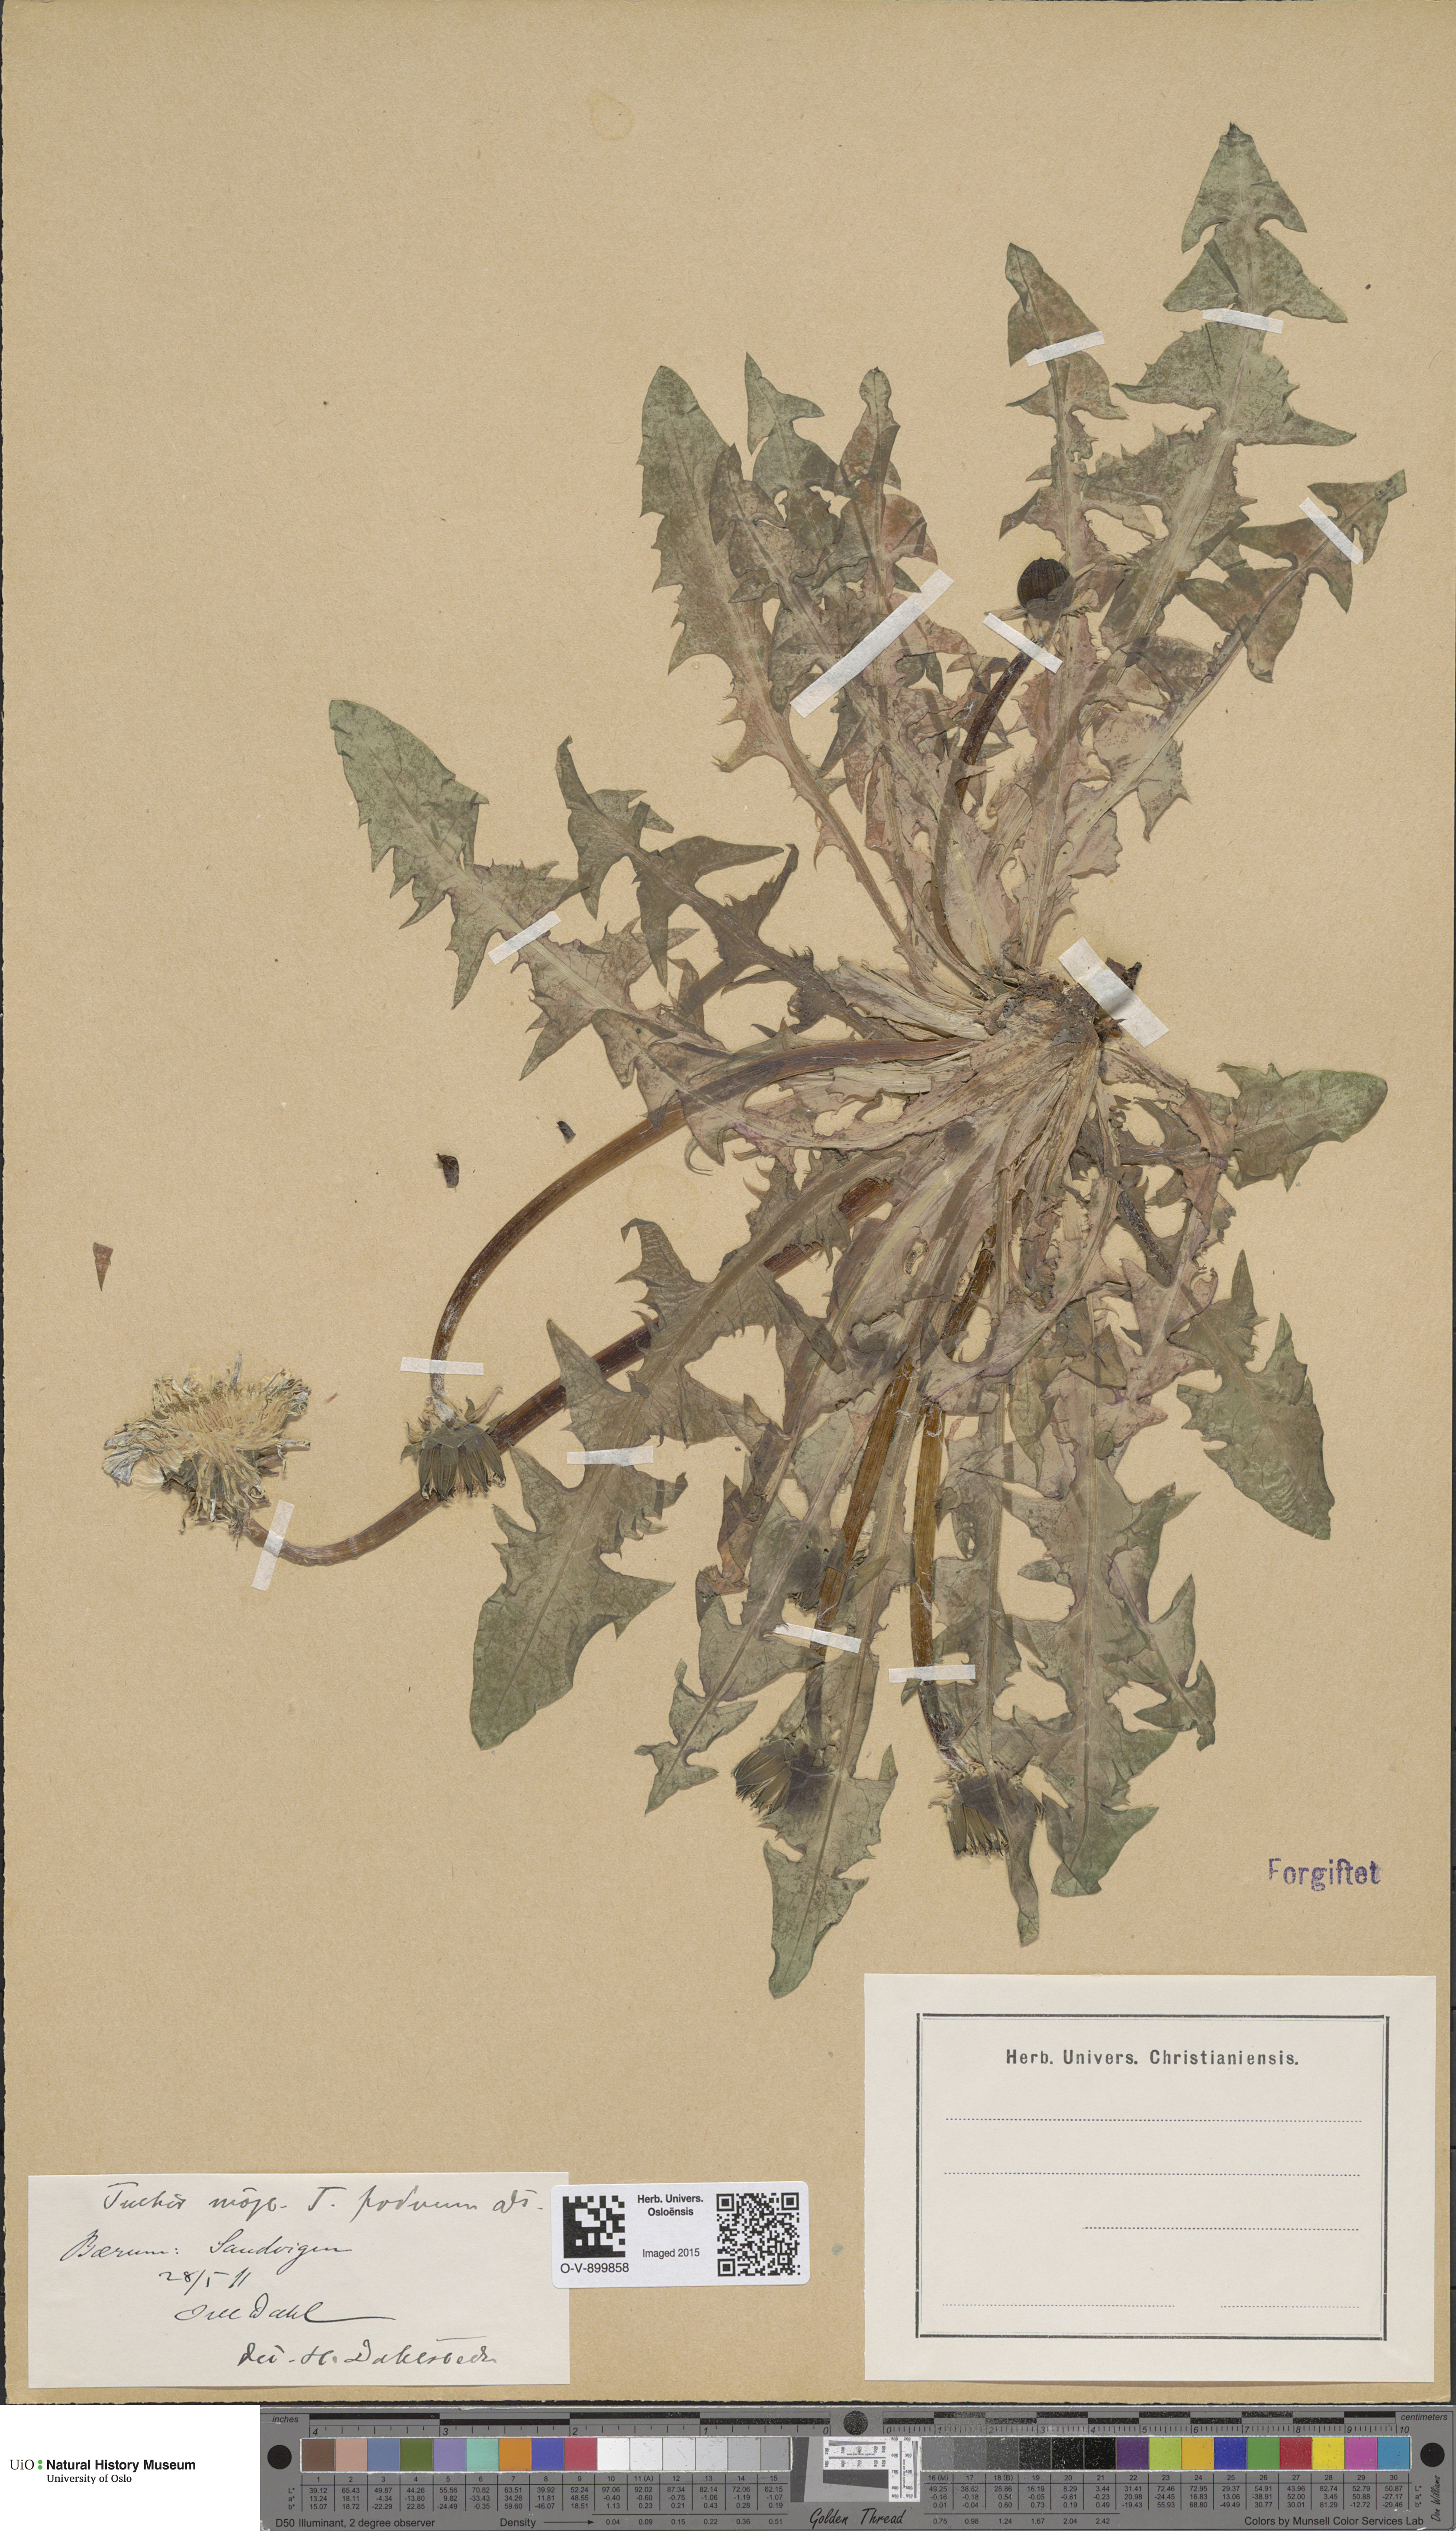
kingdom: Plantae
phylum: Tracheophyta
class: Magnoliopsida
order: Asterales
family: Asteraceae
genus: Taraxacum
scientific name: Taraxacum privum
